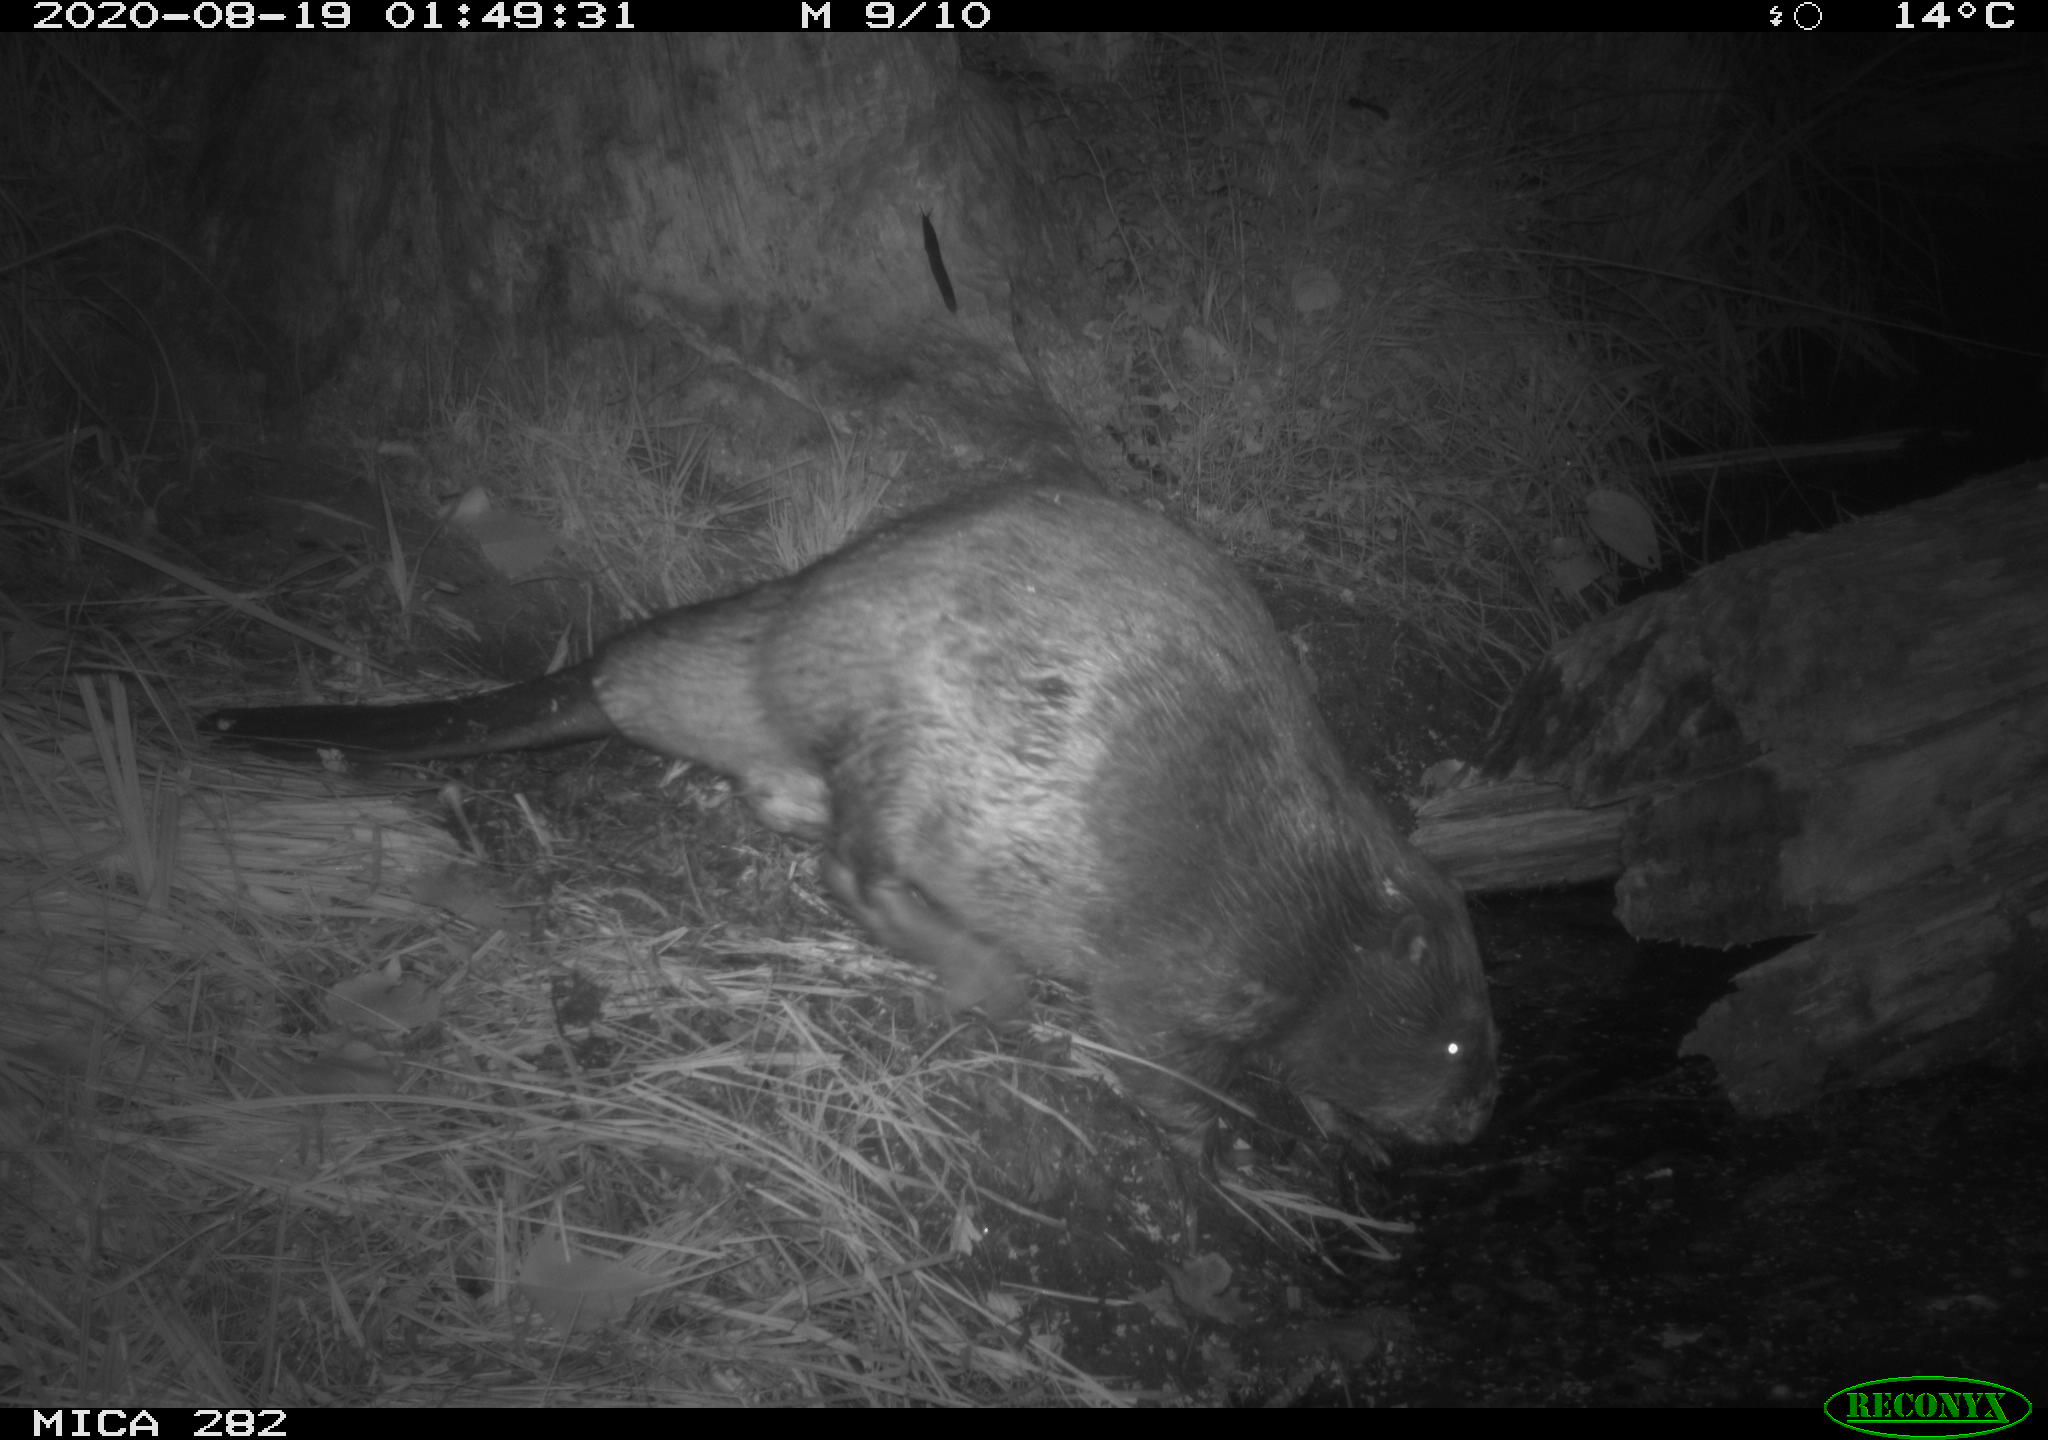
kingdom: Animalia
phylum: Chordata
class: Mammalia
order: Rodentia
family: Castoridae
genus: Castor
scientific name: Castor fiber
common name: Eurasian beaver
